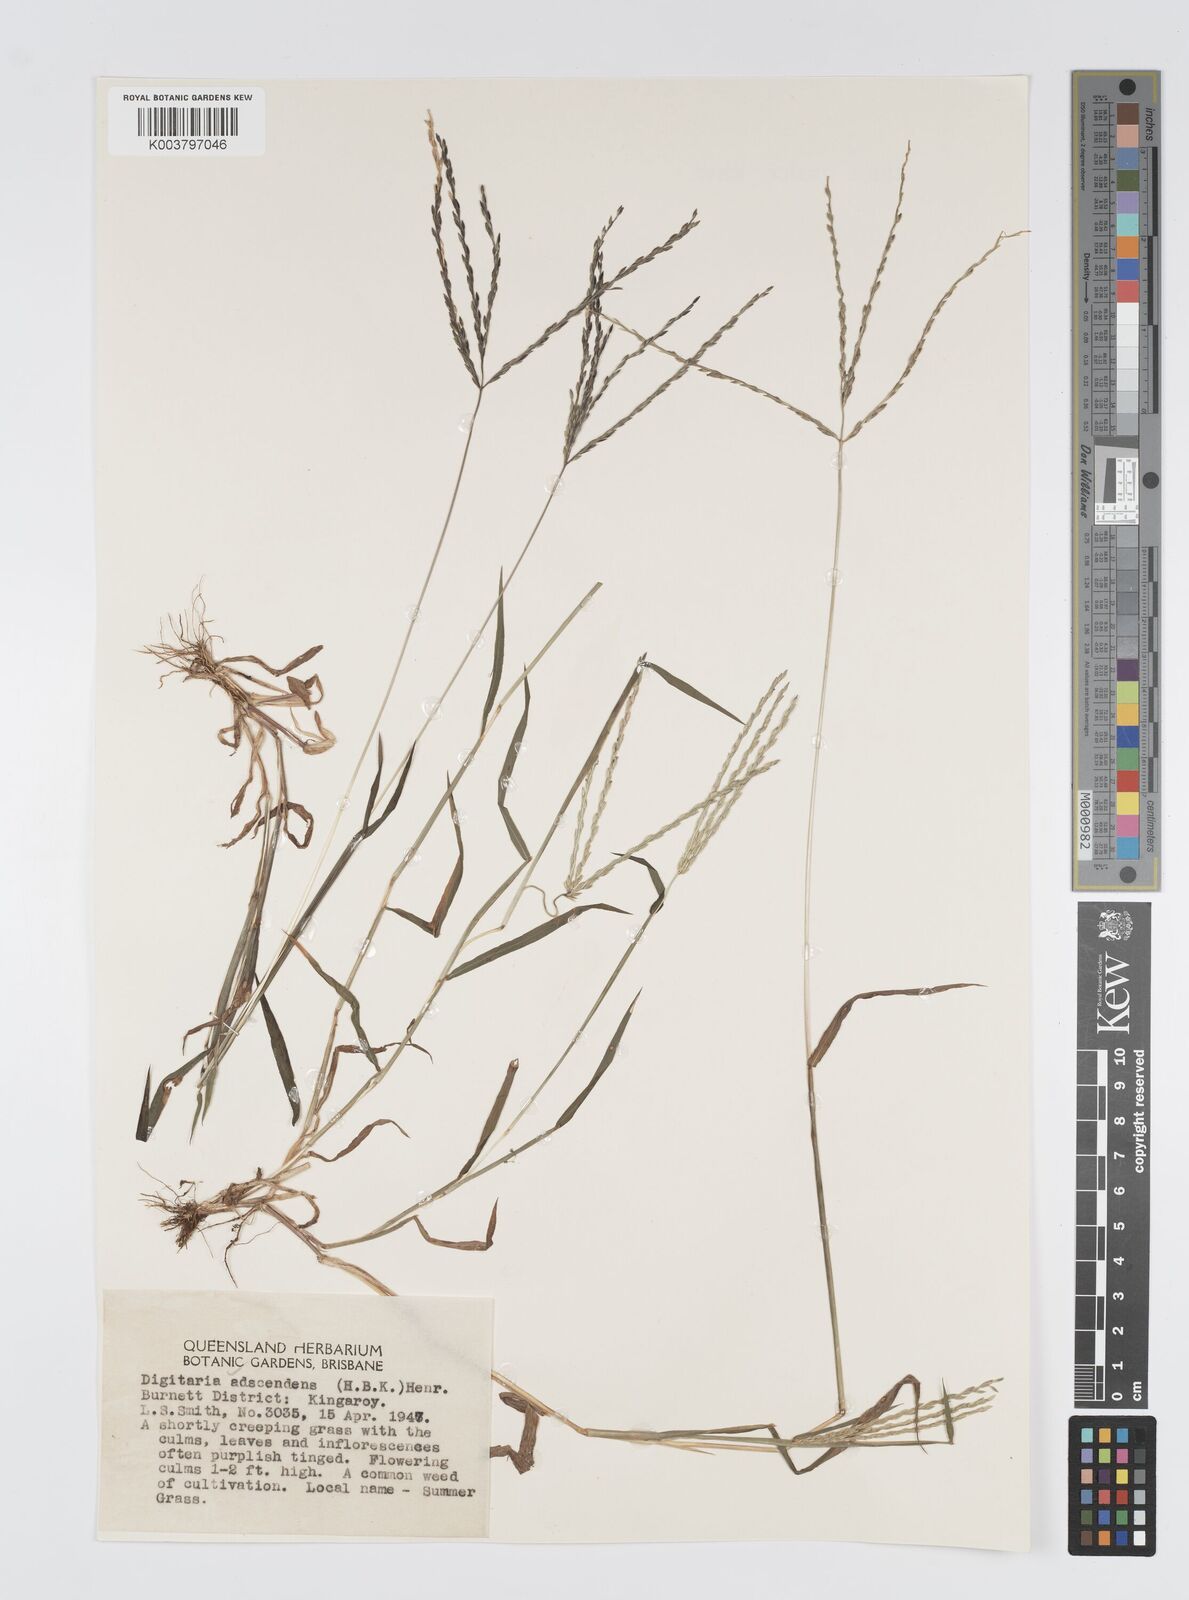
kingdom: Plantae
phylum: Tracheophyta
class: Liliopsida
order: Poales
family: Poaceae
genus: Digitaria
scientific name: Digitaria ciliaris
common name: Tropical finger-grass
